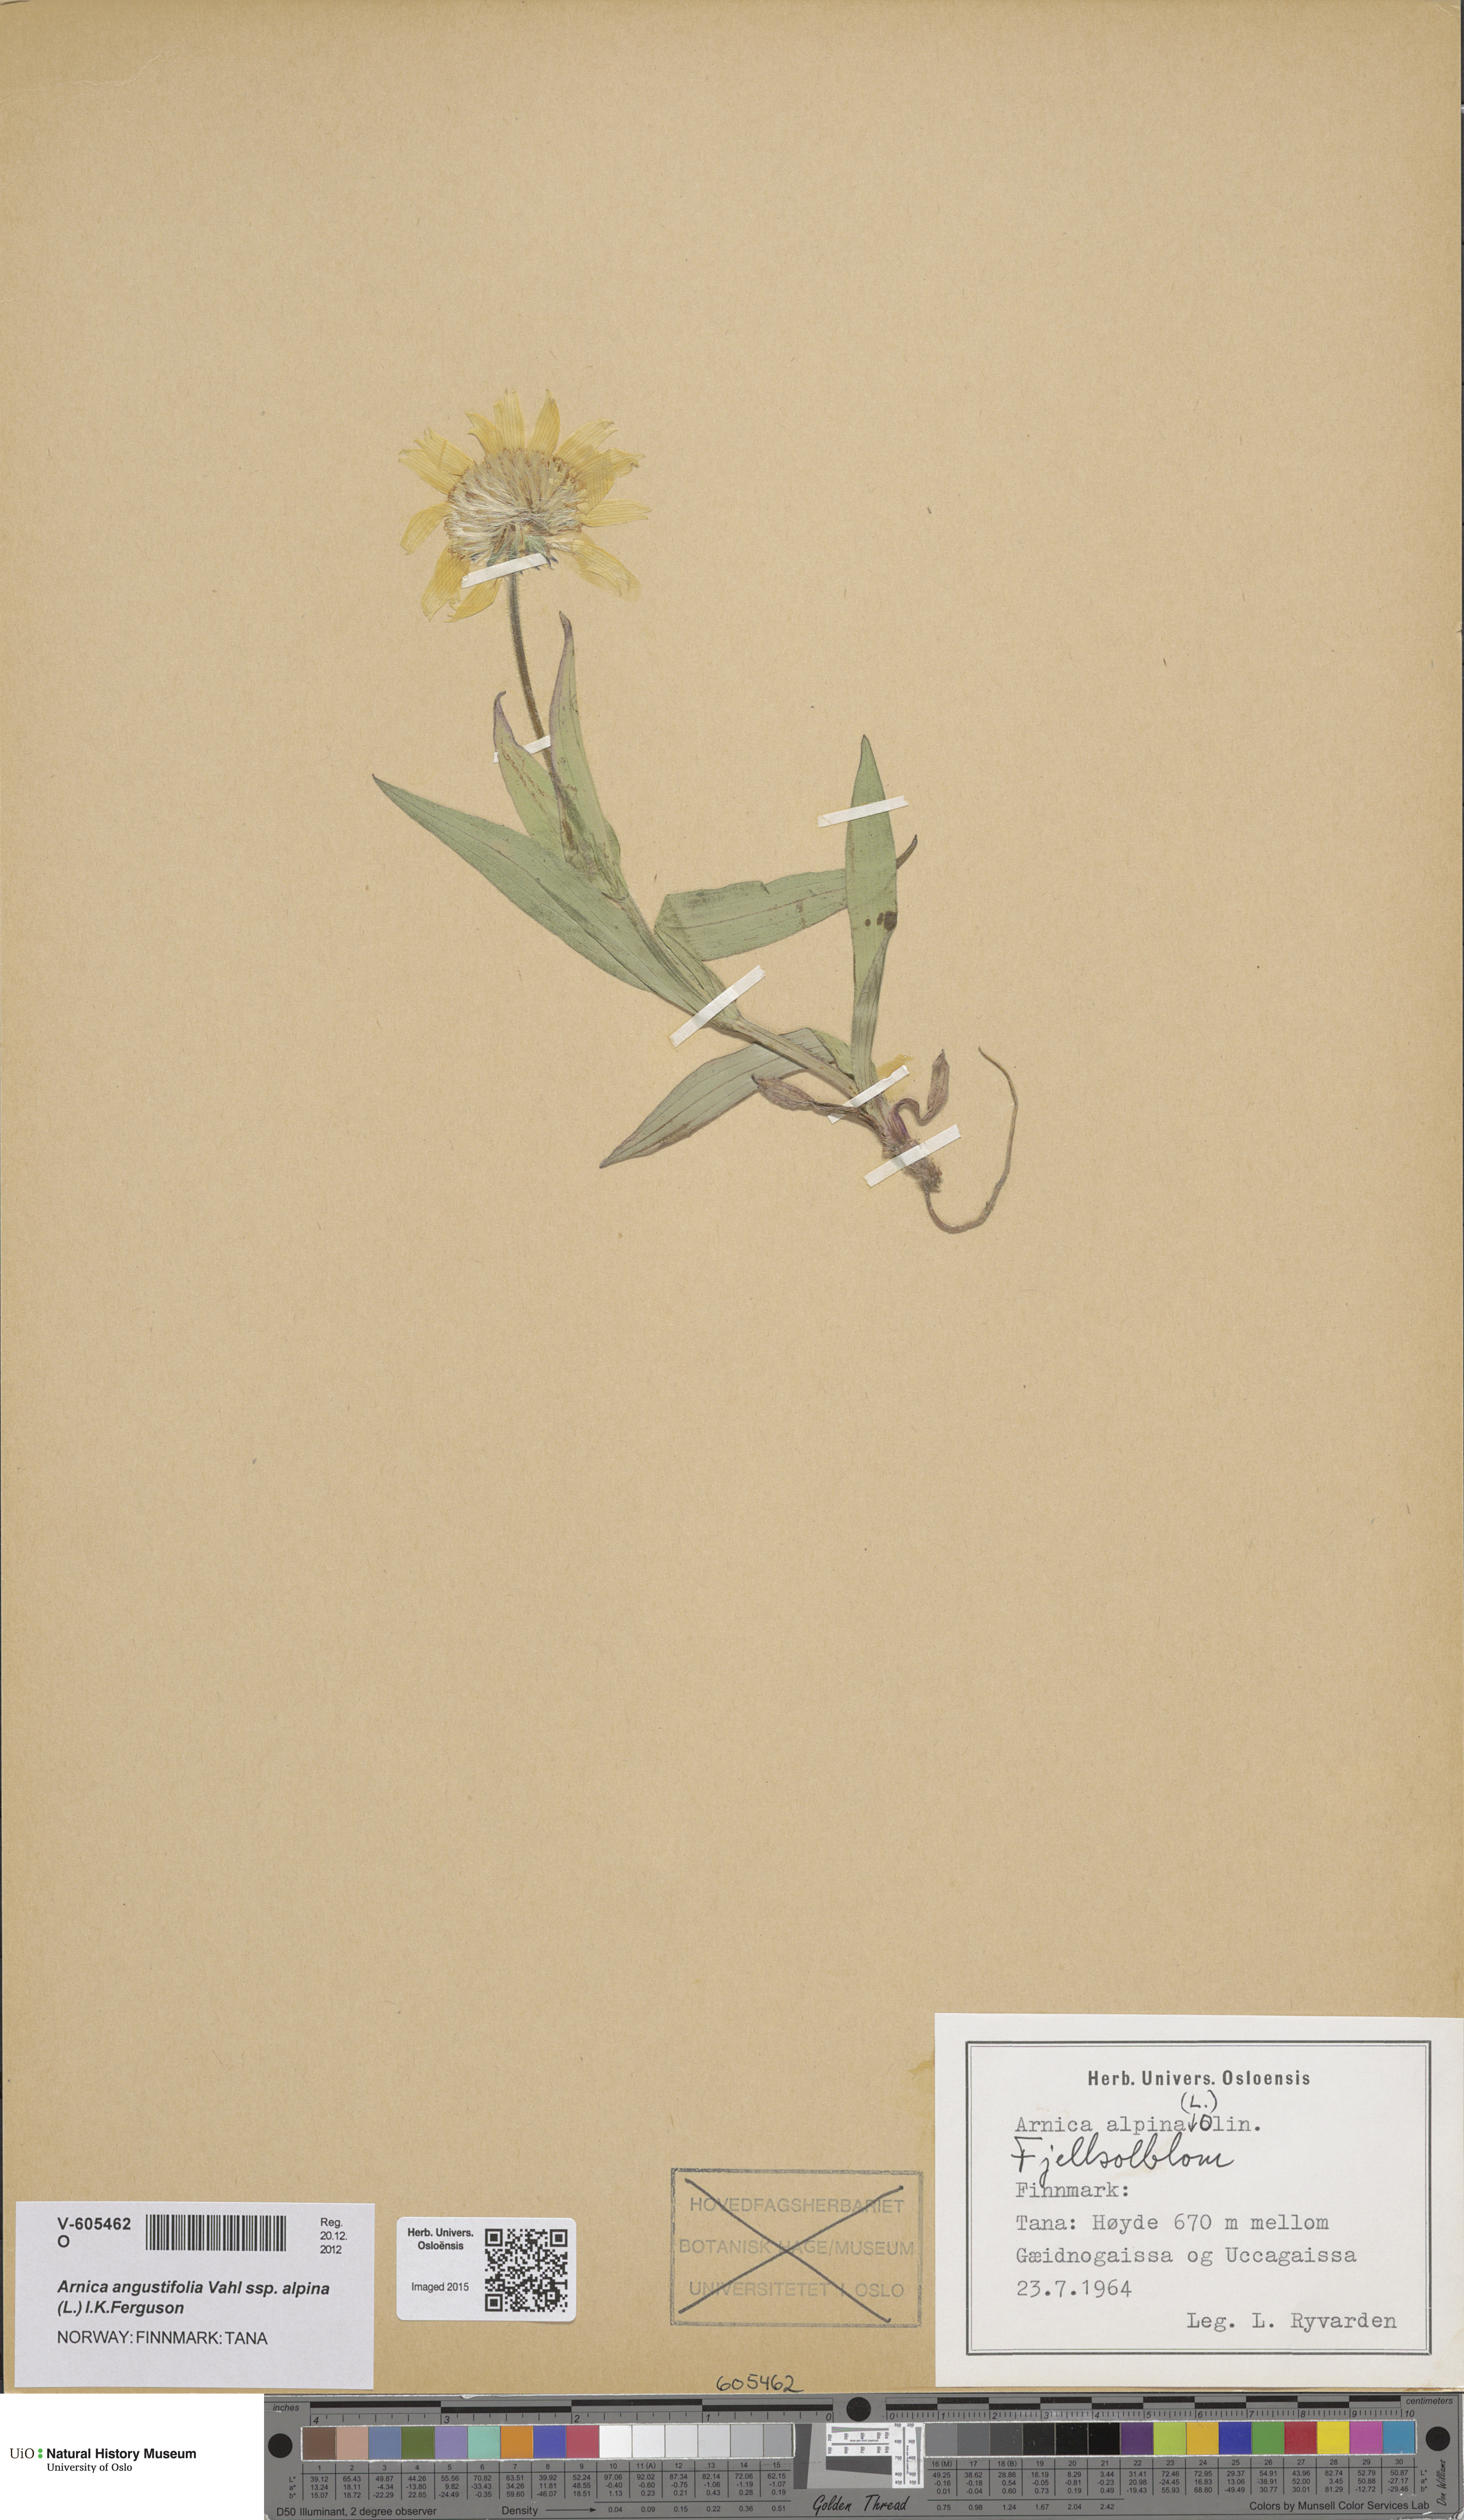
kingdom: Plantae
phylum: Tracheophyta
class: Magnoliopsida
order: Asterales
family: Asteraceae
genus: Arnica
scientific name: Arnica angustifolia
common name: Arctic arnica
